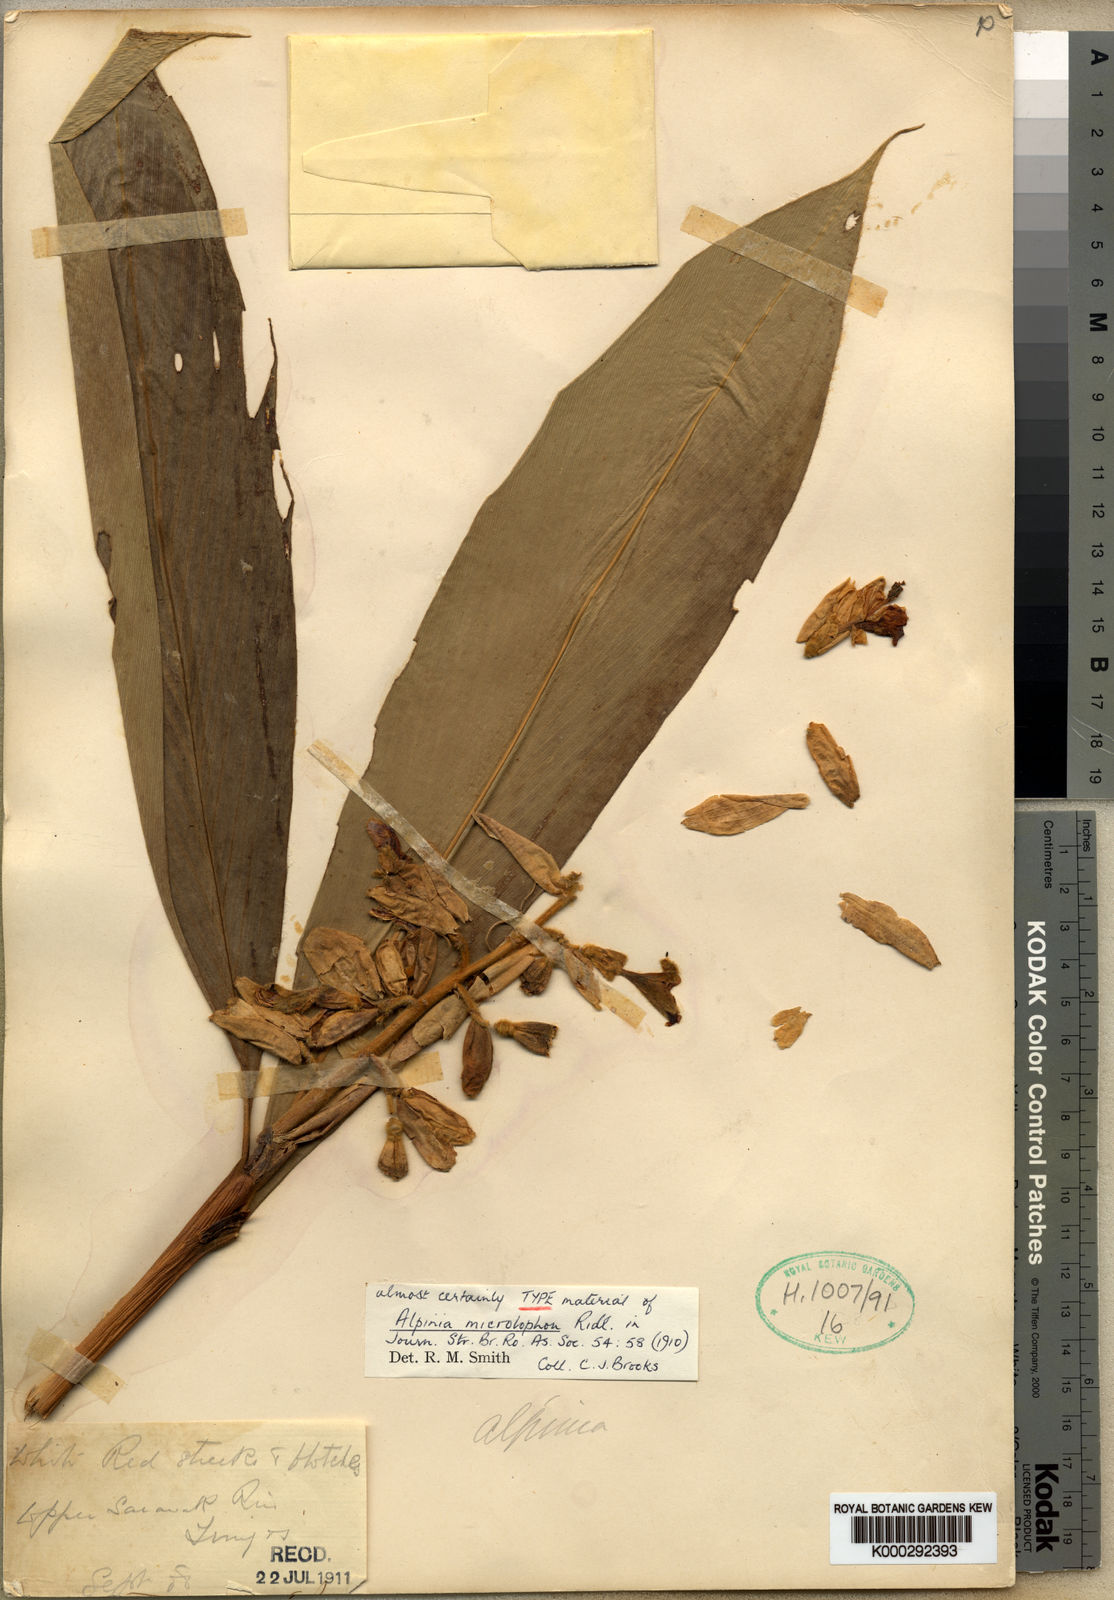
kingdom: Plantae
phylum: Tracheophyta
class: Liliopsida
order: Zingiberales
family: Zingiberaceae
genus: Alpinia
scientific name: Alpinia microlophon
